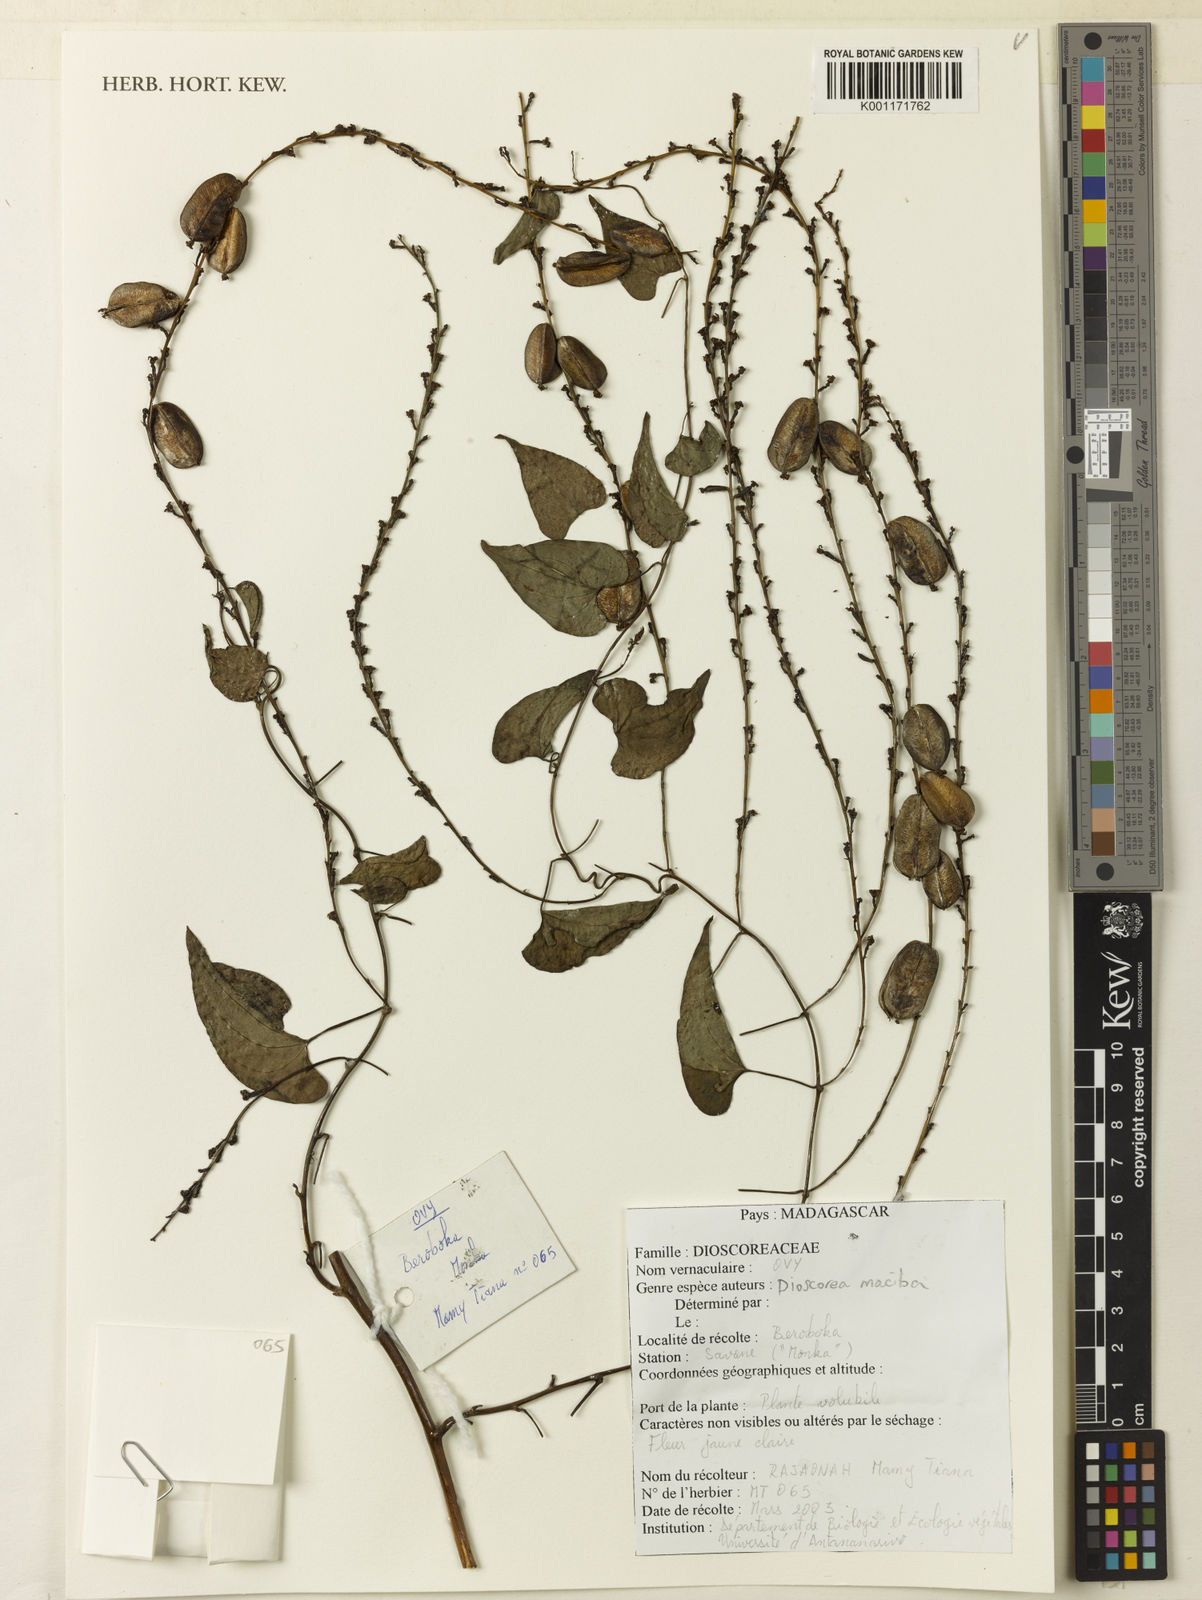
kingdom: Plantae
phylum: Tracheophyta
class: Liliopsida
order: Dioscoreales
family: Dioscoreaceae
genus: Dioscorea
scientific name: Dioscorea maciba
